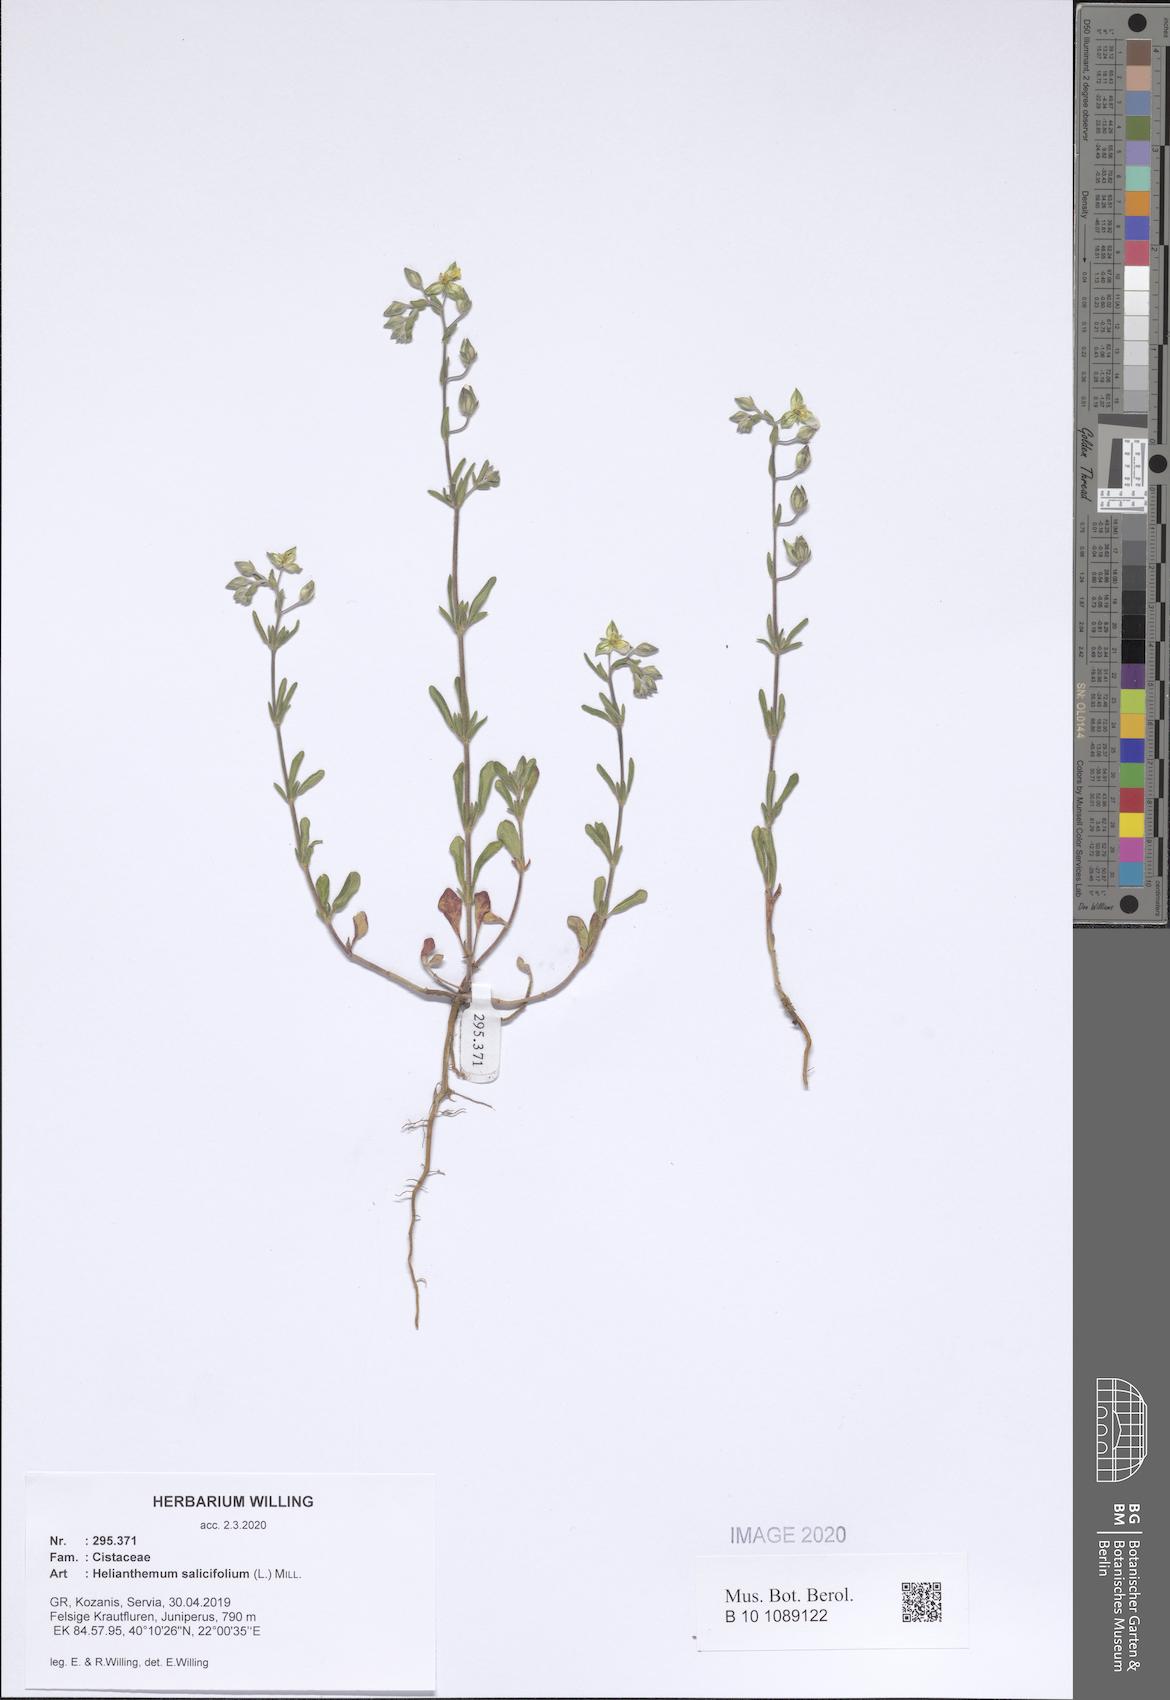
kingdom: Plantae
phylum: Tracheophyta
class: Magnoliopsida
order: Malvales
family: Cistaceae
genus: Helianthemum
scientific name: Helianthemum salicifolium
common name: Willowleaf frostweed
